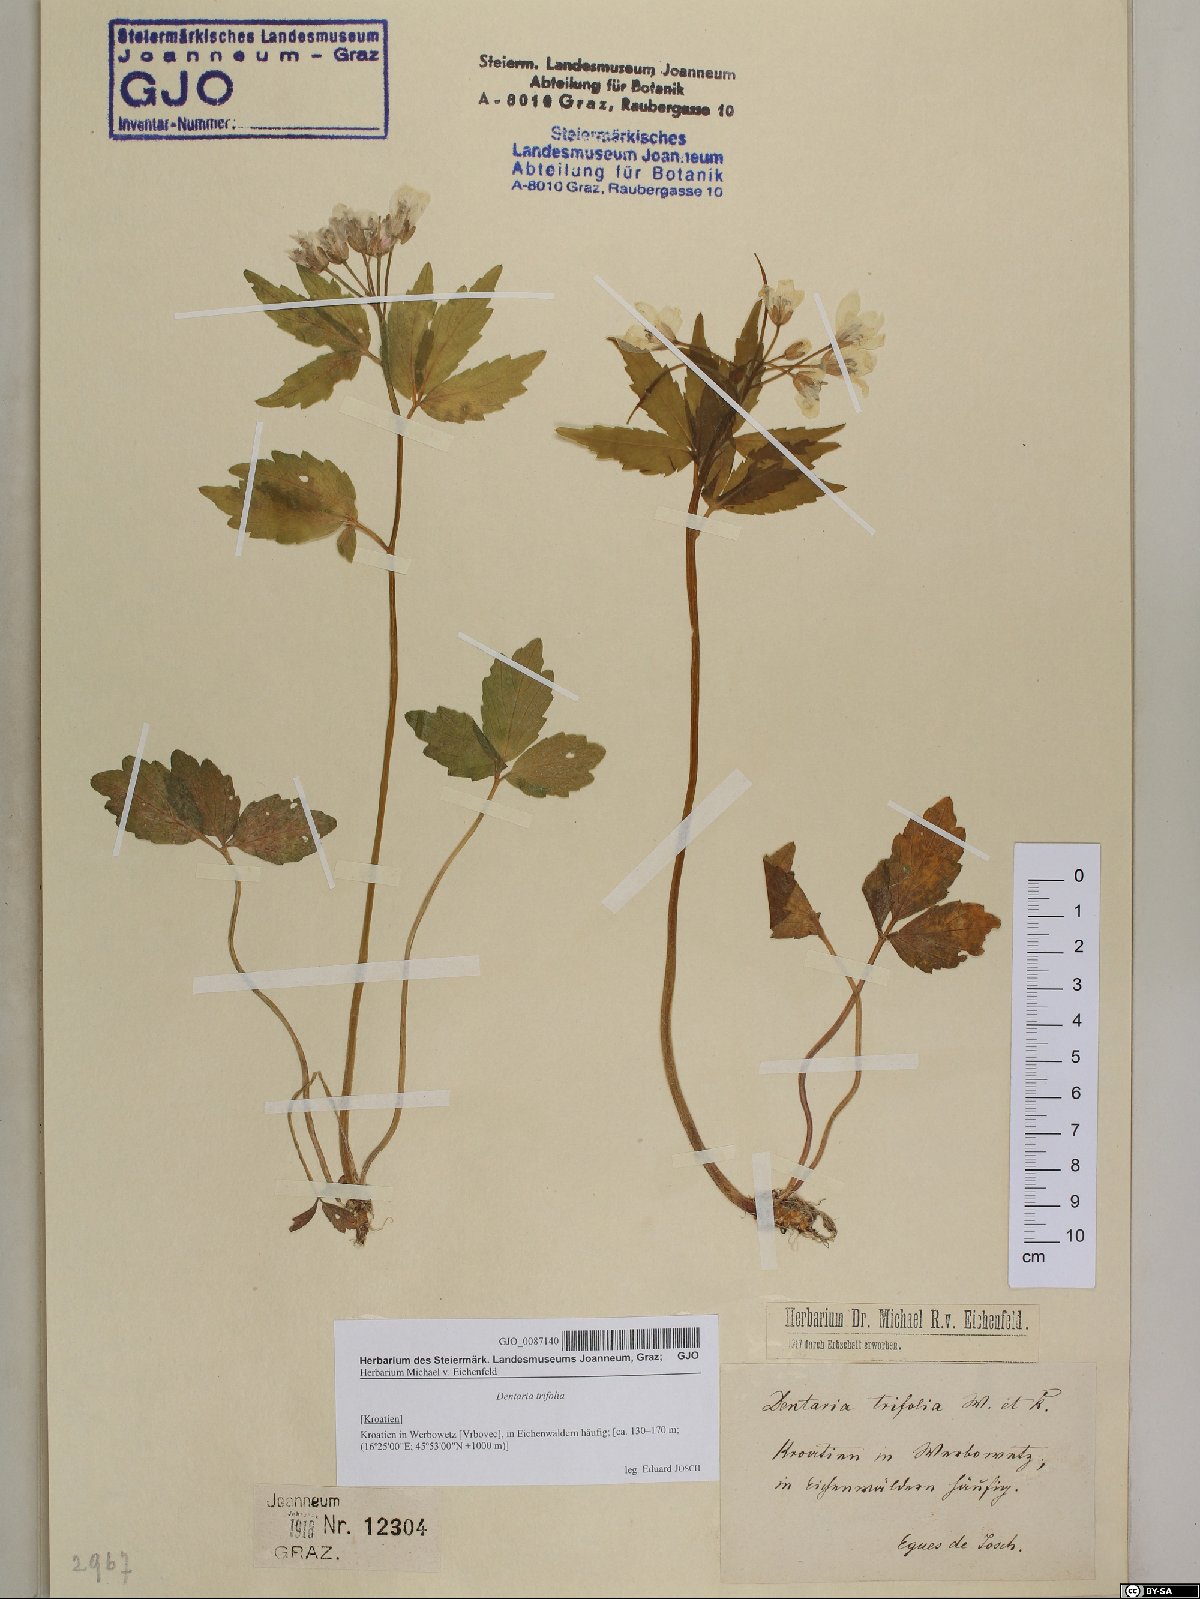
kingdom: Plantae
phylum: Tracheophyta
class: Magnoliopsida
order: Brassicales
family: Brassicaceae
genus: Cardamine
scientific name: Cardamine waldsteinii
